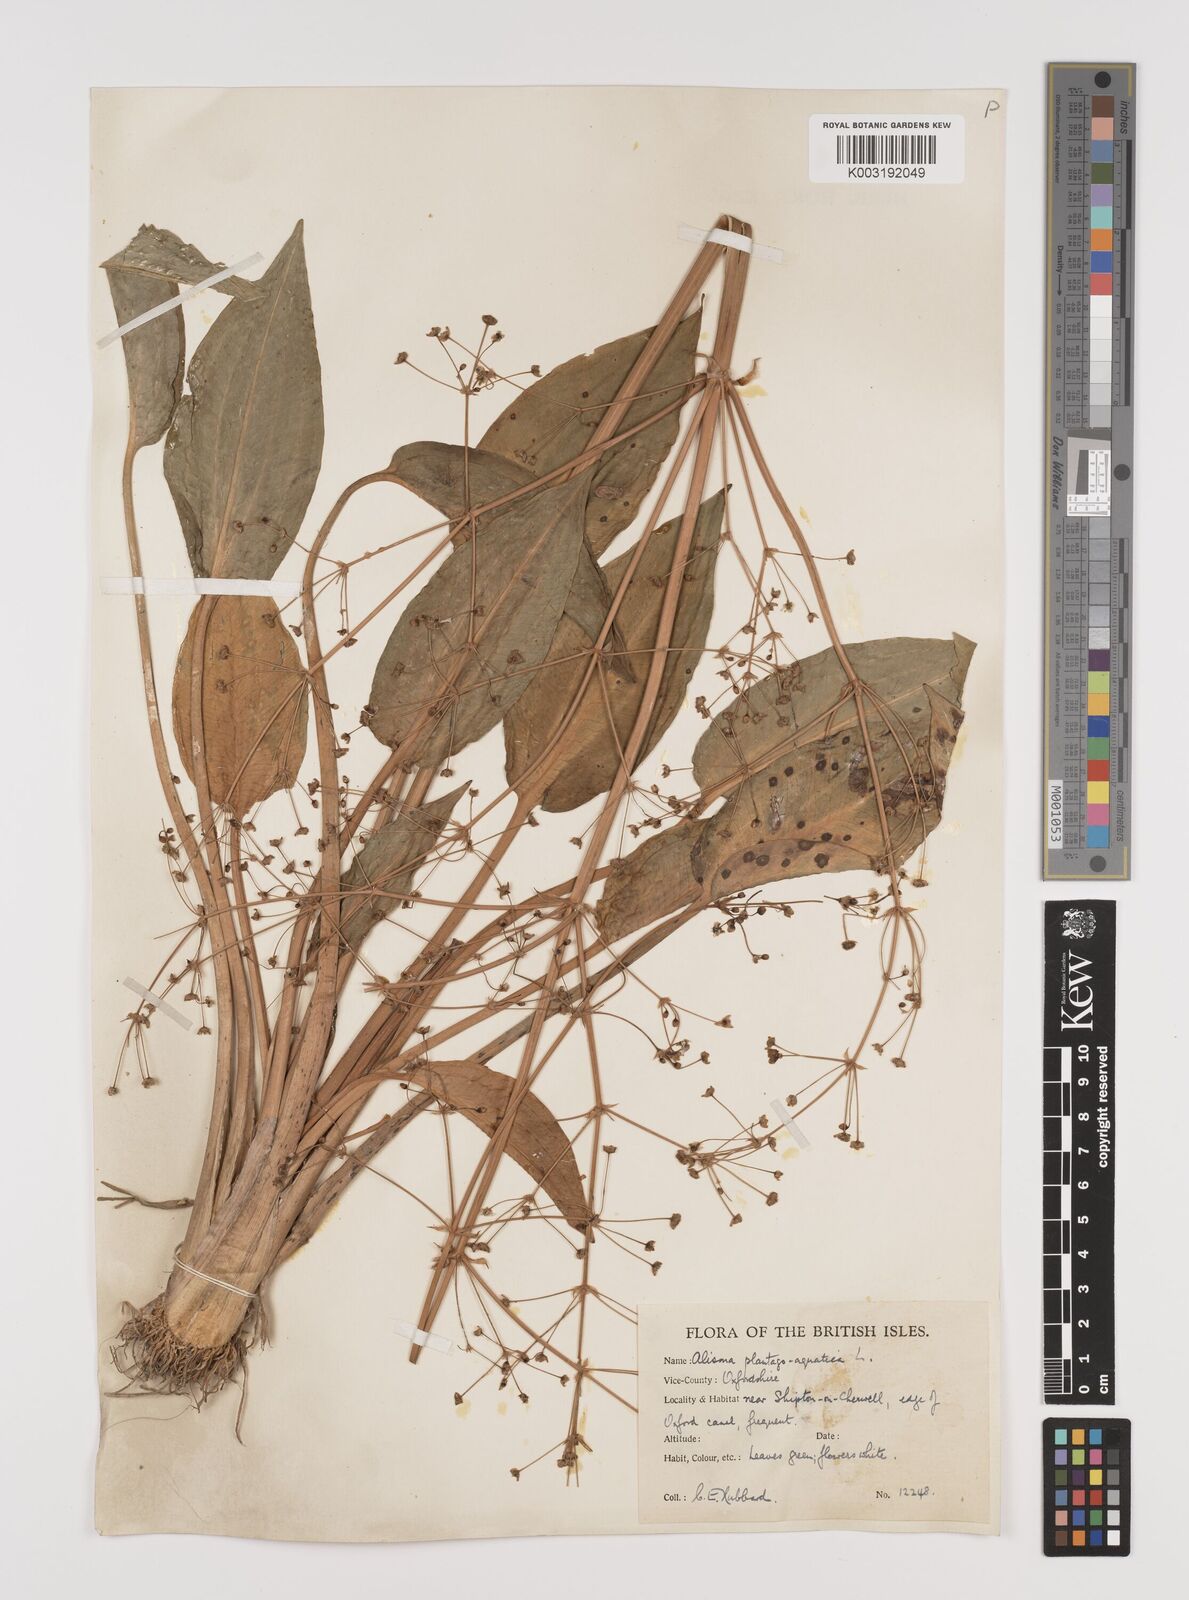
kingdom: Plantae
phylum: Tracheophyta
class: Liliopsida
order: Alismatales
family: Alismataceae
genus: Alisma
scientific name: Alisma plantago-aquatica
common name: Water-plantain
